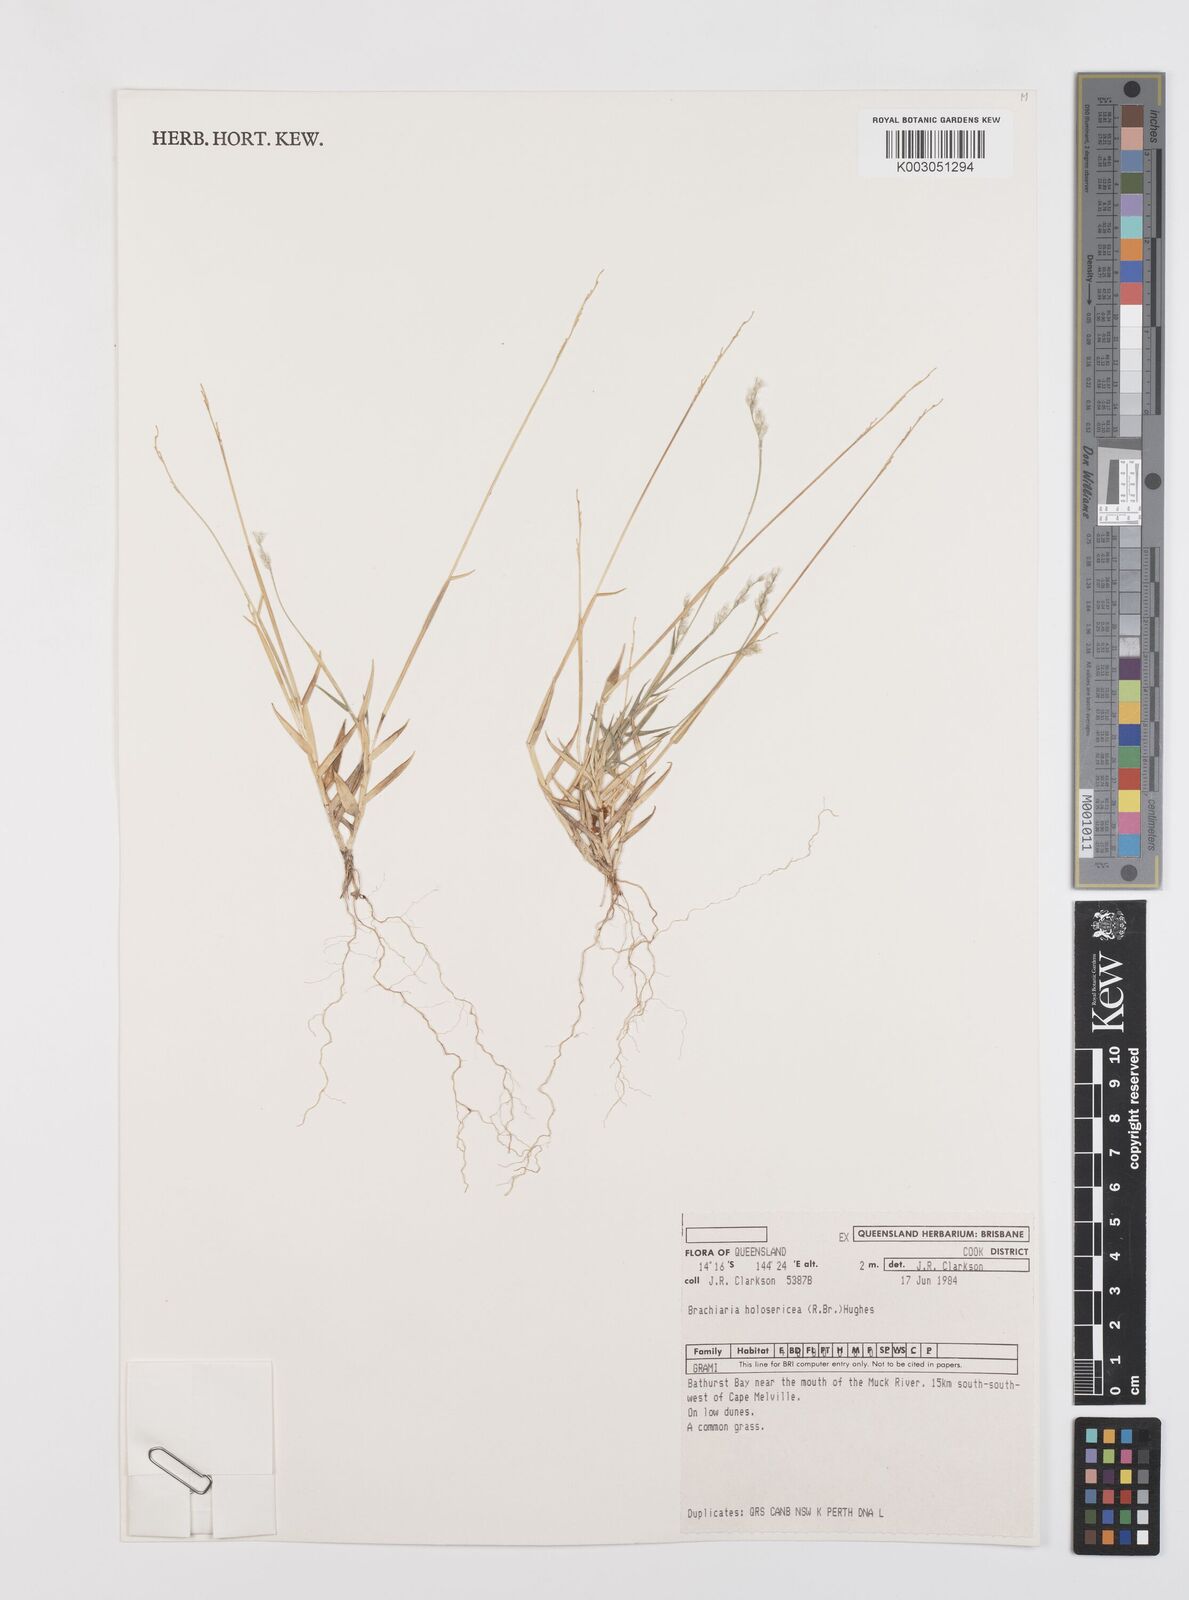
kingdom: Plantae
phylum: Tracheophyta
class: Liliopsida
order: Poales
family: Poaceae
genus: Urochloa
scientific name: Urochloa holosericea
